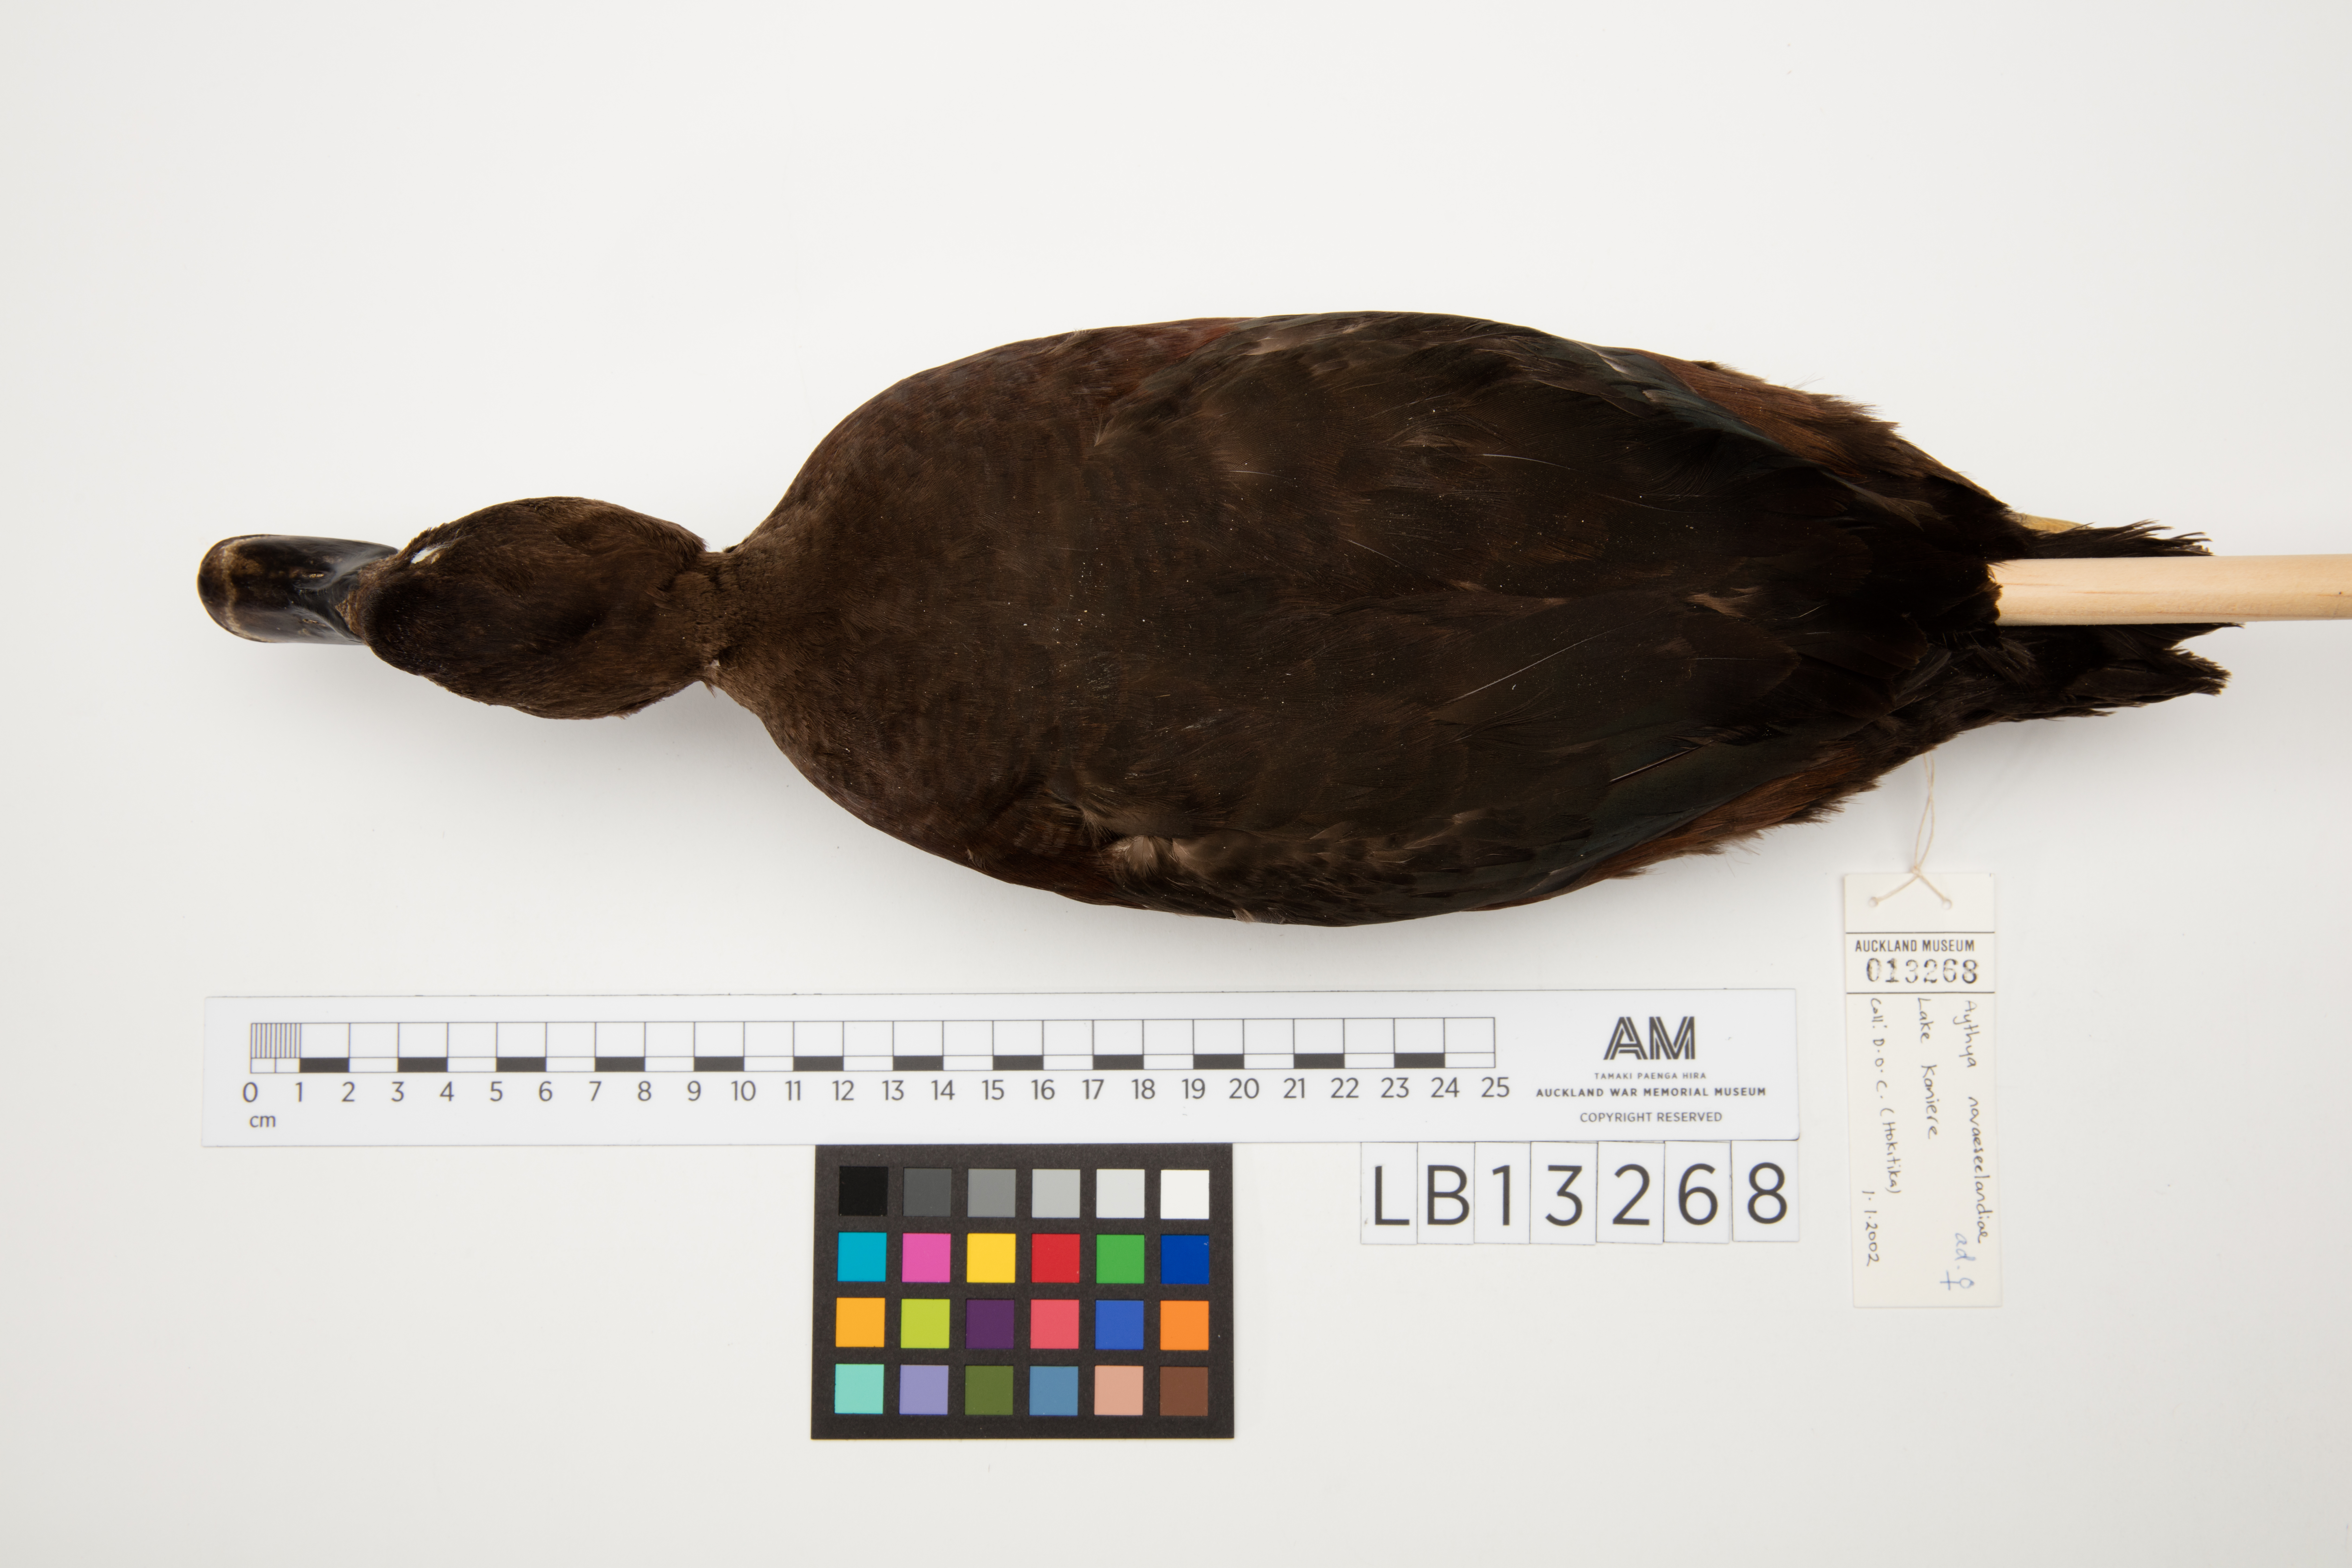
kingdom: Animalia
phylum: Chordata
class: Aves
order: Anseriformes
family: Anatidae
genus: Aythya
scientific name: Aythya novaeseelandiae
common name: New zealand scaup
